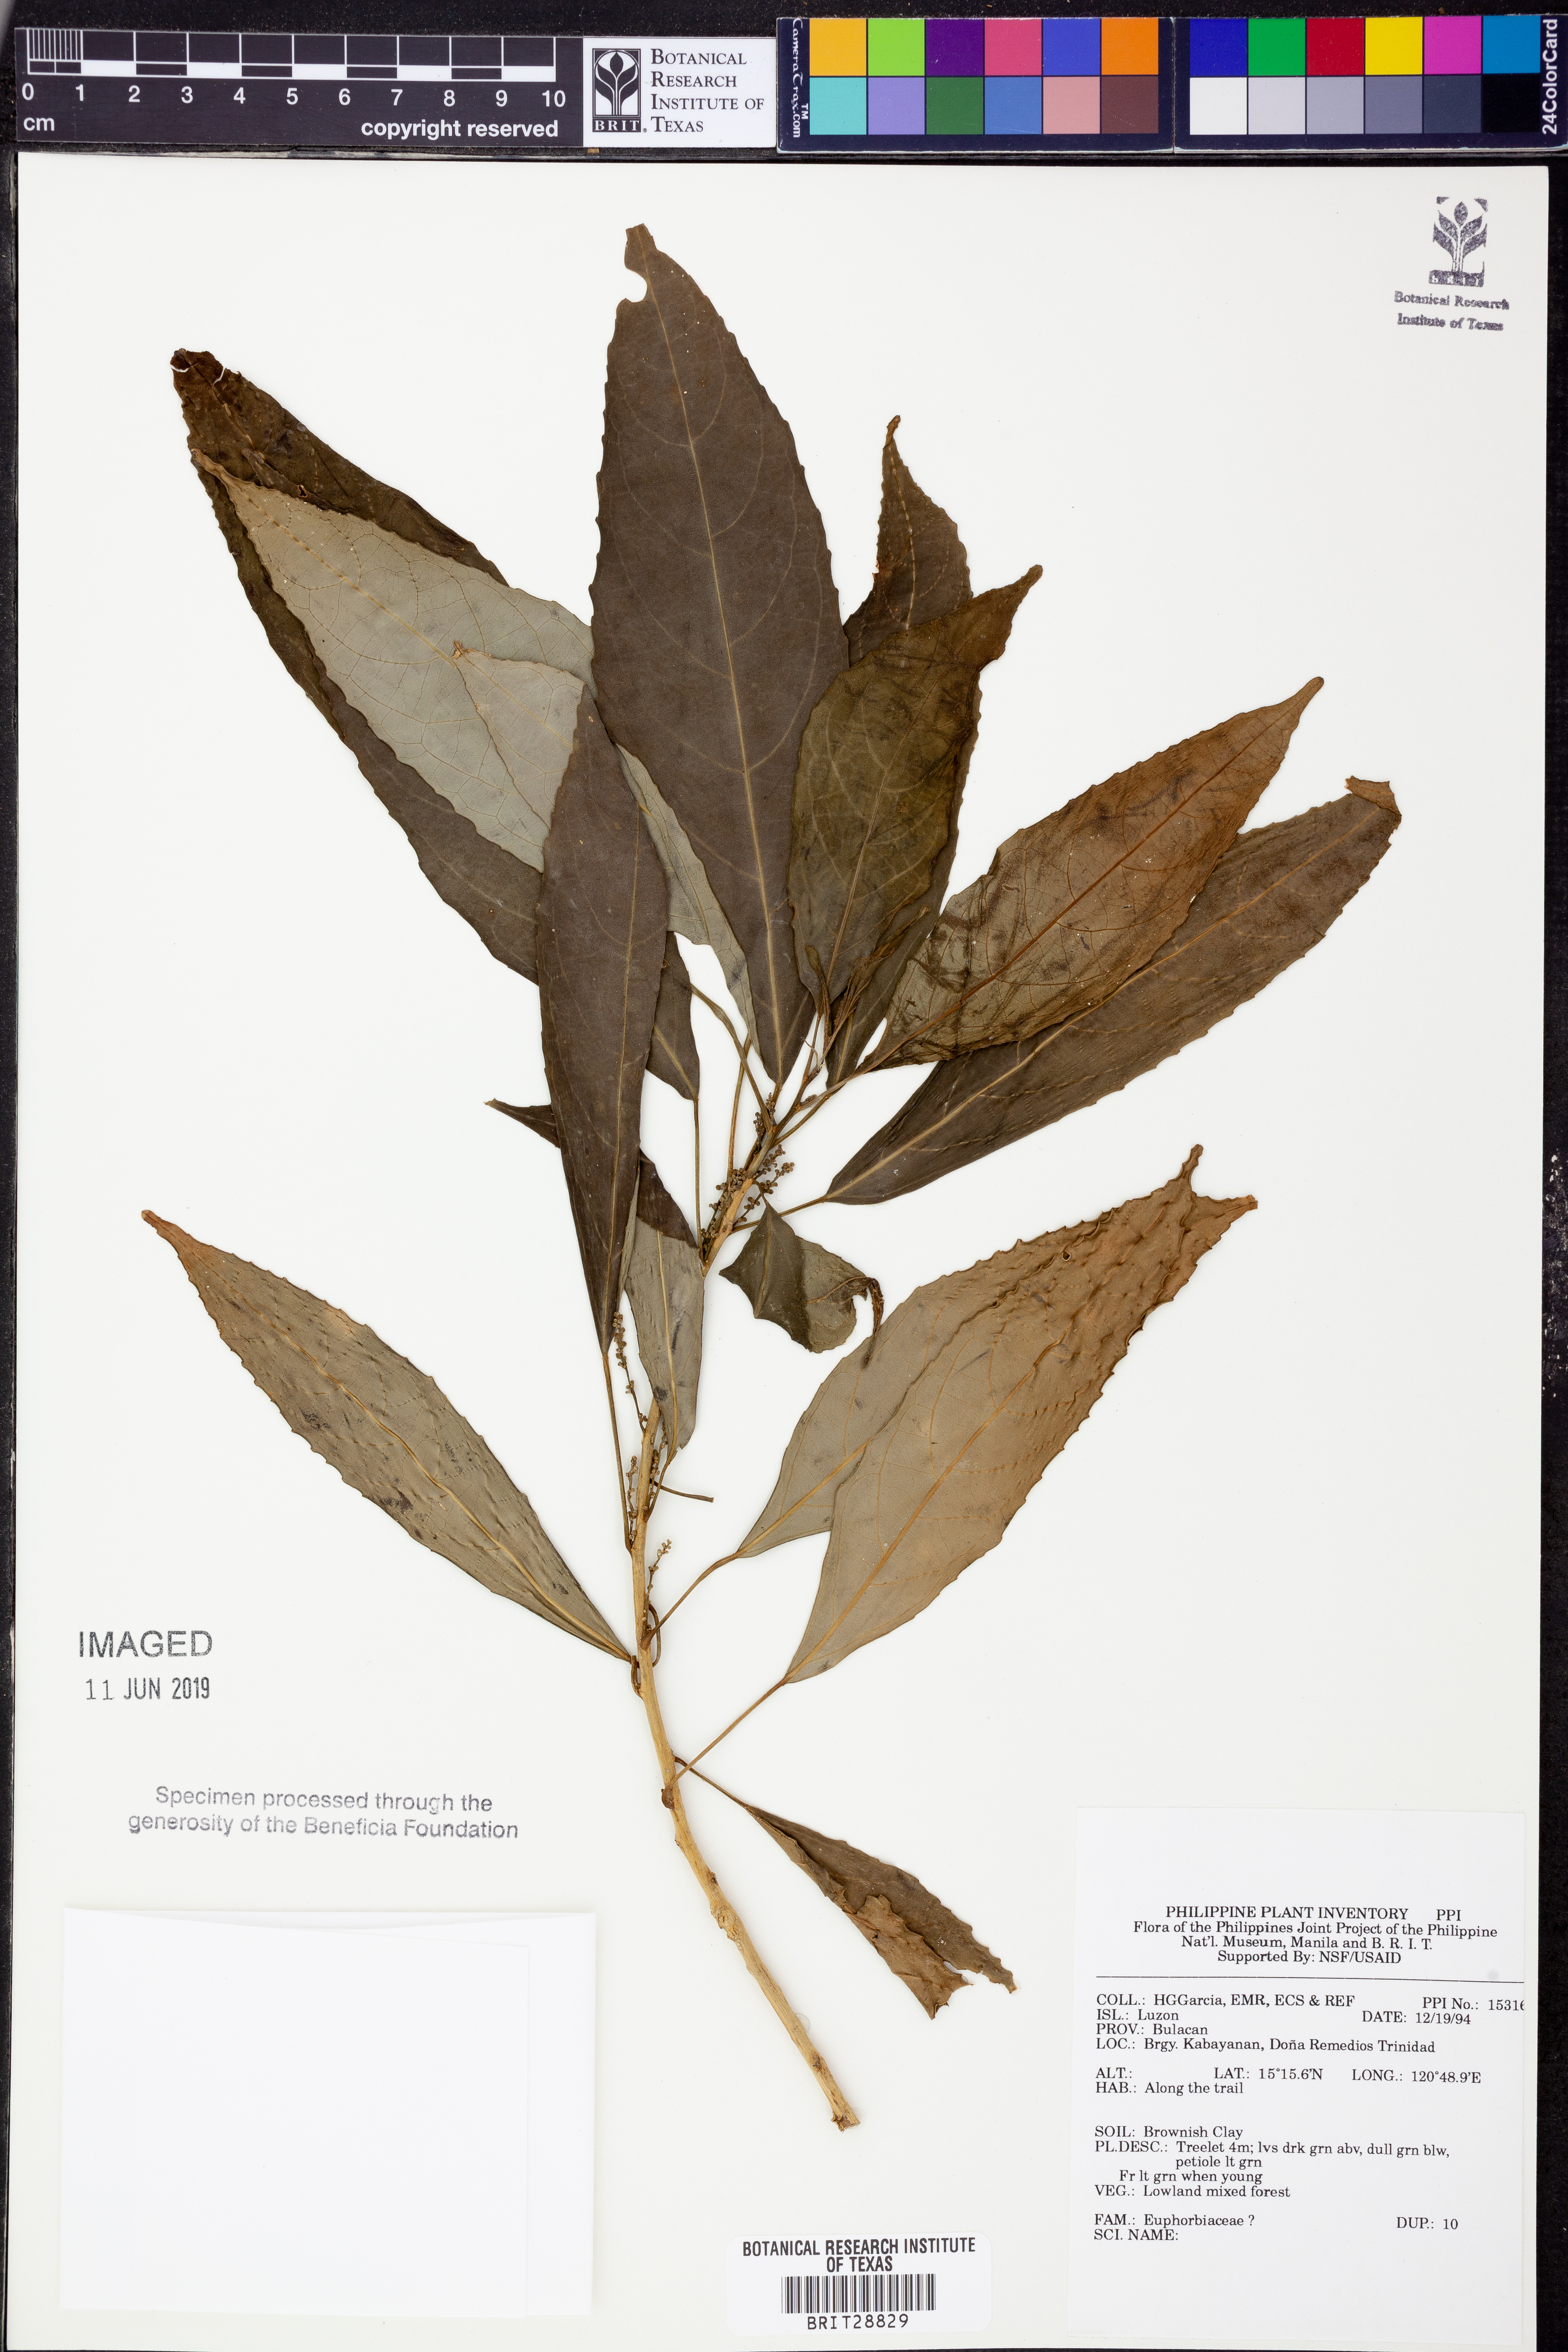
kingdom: Plantae
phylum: Tracheophyta
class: Magnoliopsida
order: Malpighiales
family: Euphorbiaceae
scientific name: Euphorbiaceae
